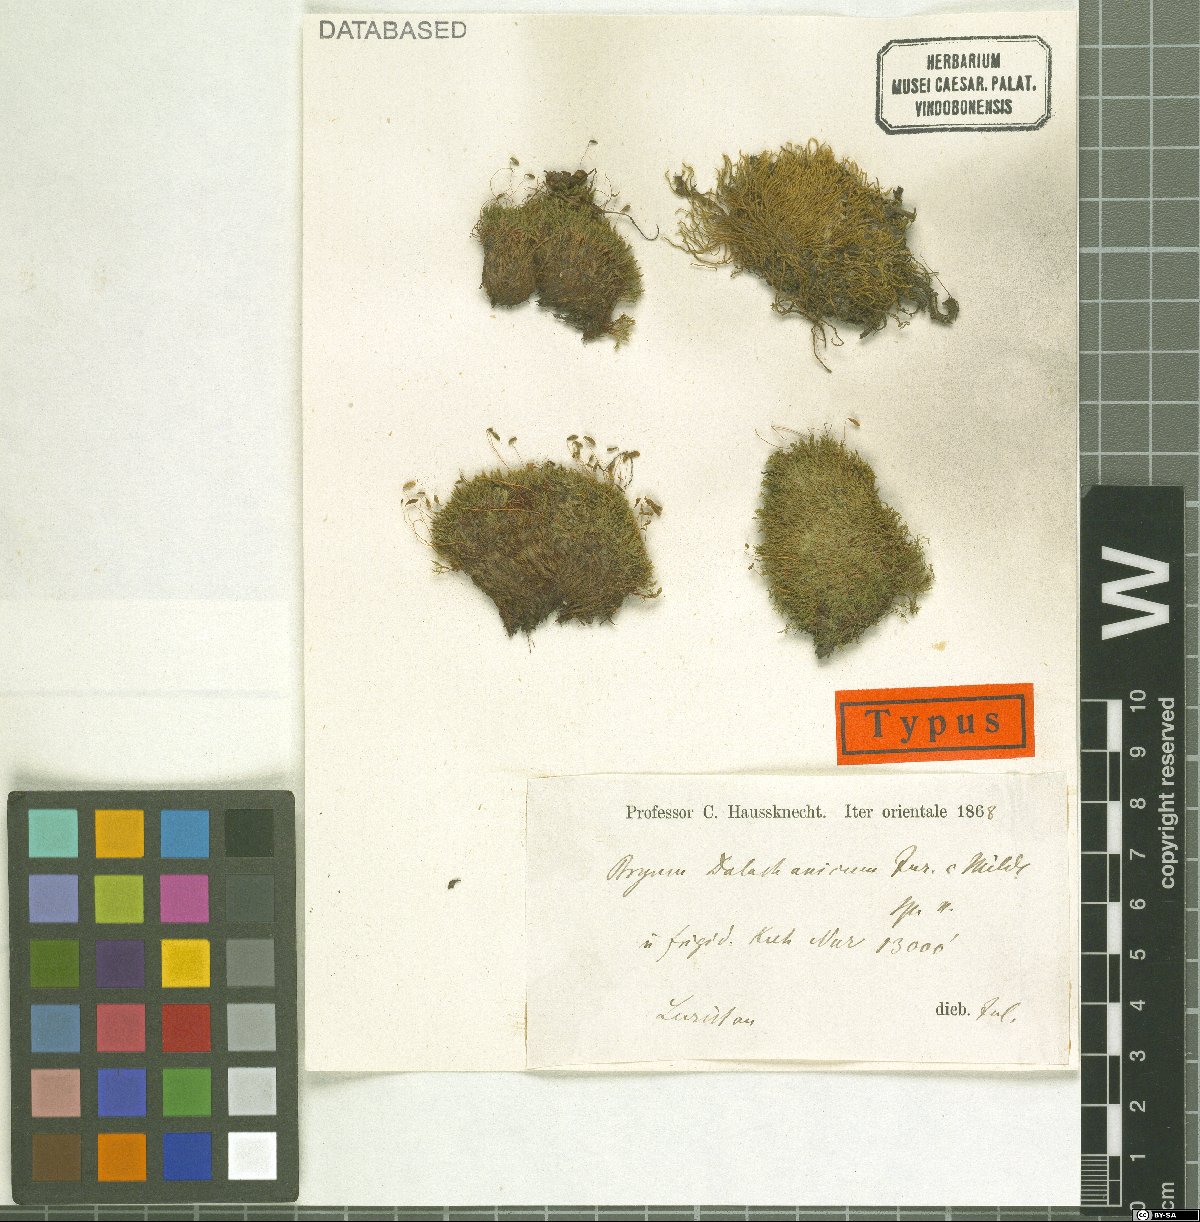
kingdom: Plantae
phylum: Bryophyta
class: Bryopsida
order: Bryales
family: Bryaceae
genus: Ptychostomum
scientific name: Ptychostomum pallescens
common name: Tall-clustered thread-moss
